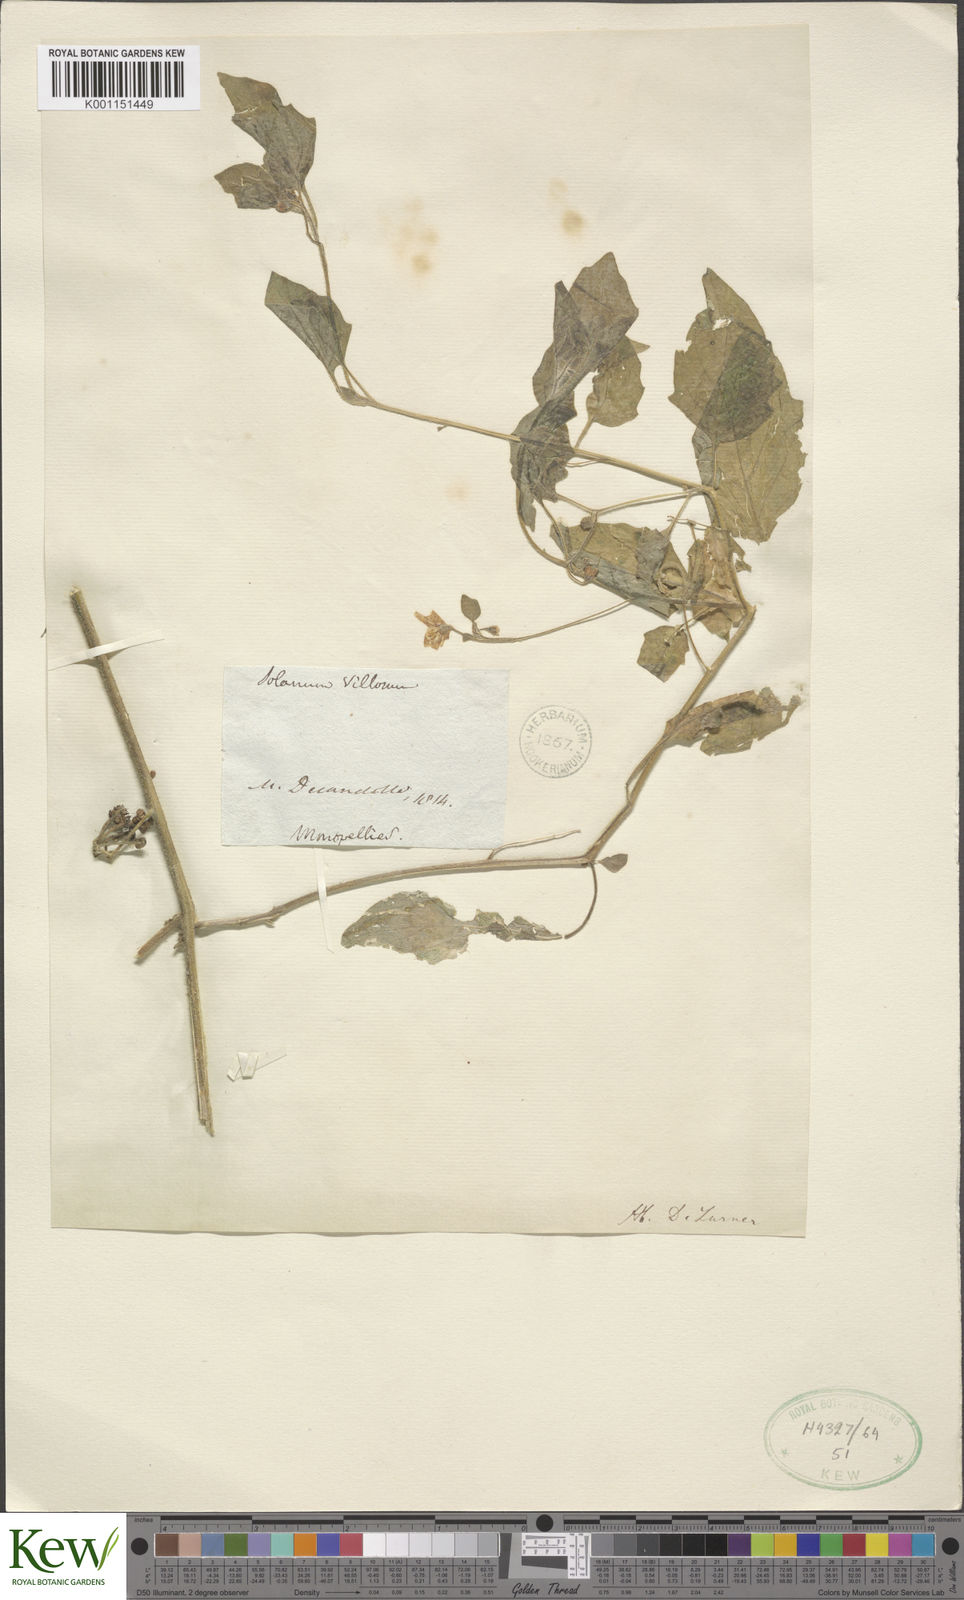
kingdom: Plantae
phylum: Tracheophyta
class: Magnoliopsida
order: Solanales
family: Solanaceae
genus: Solanum
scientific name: Solanum villosum
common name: Red nightshade
